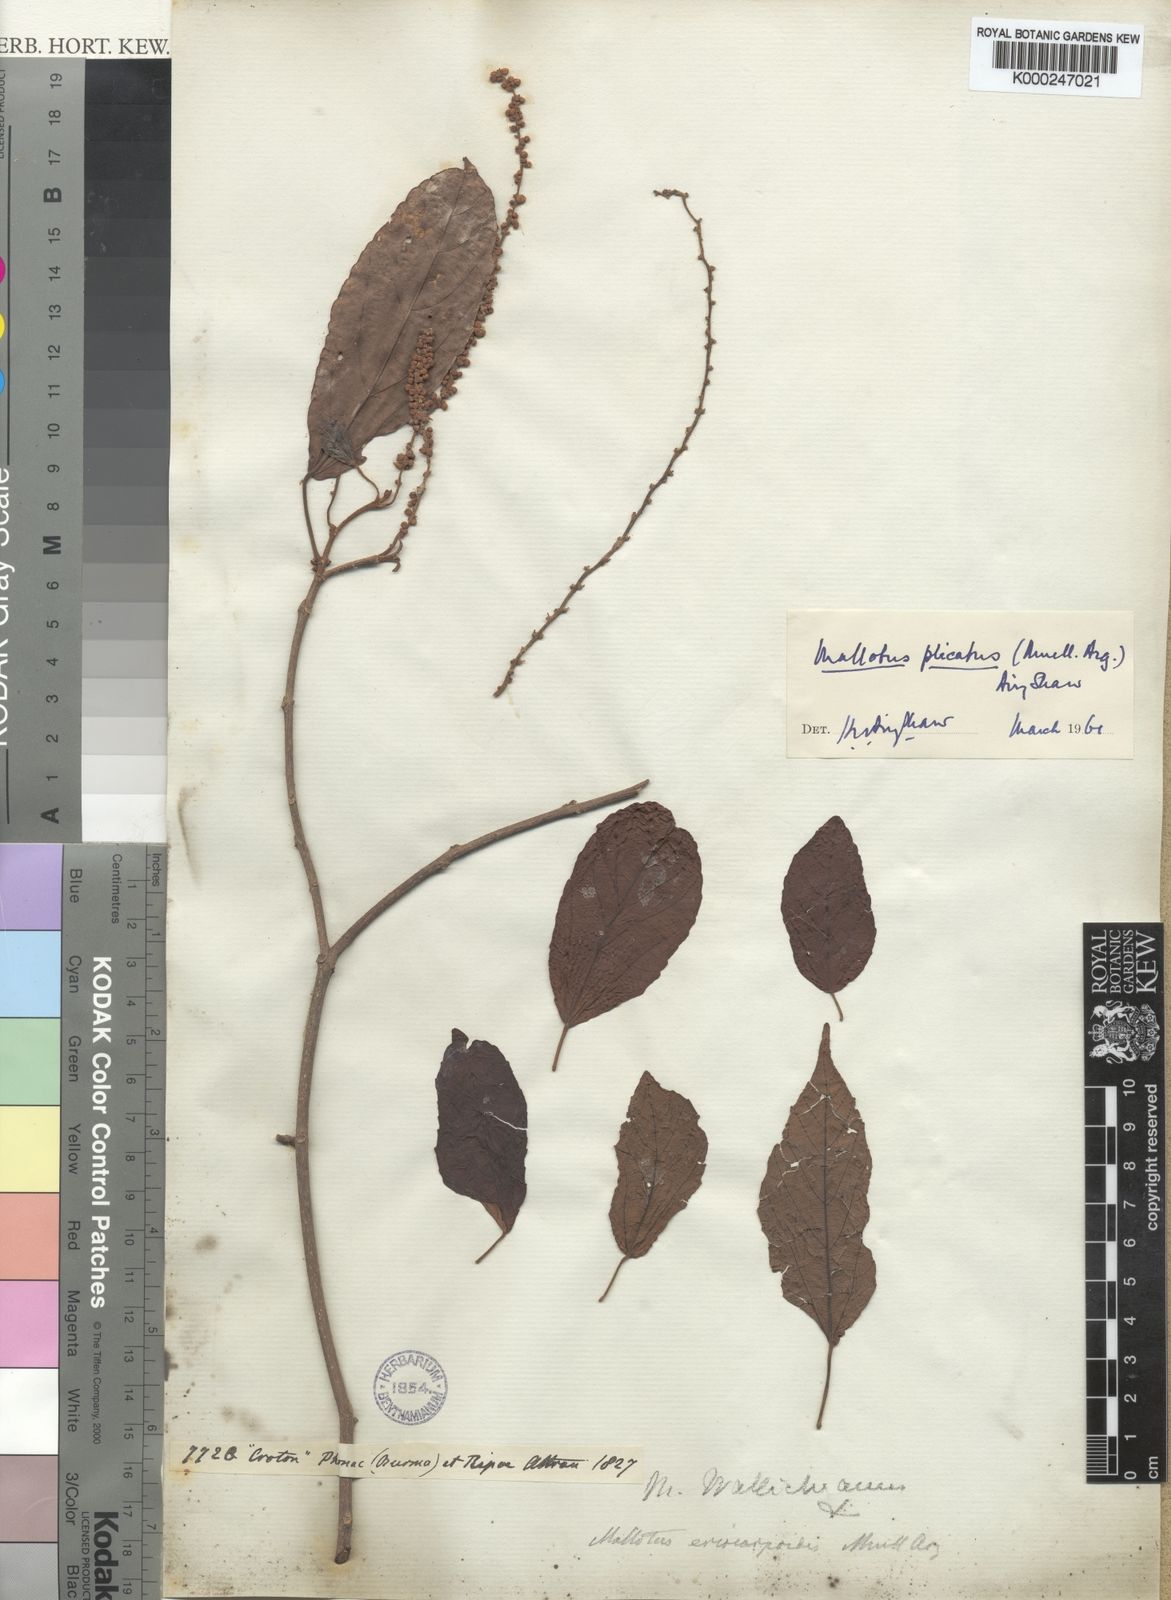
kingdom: Plantae
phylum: Tracheophyta
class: Magnoliopsida
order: Malpighiales
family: Euphorbiaceae
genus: Mallotus
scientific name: Mallotus
